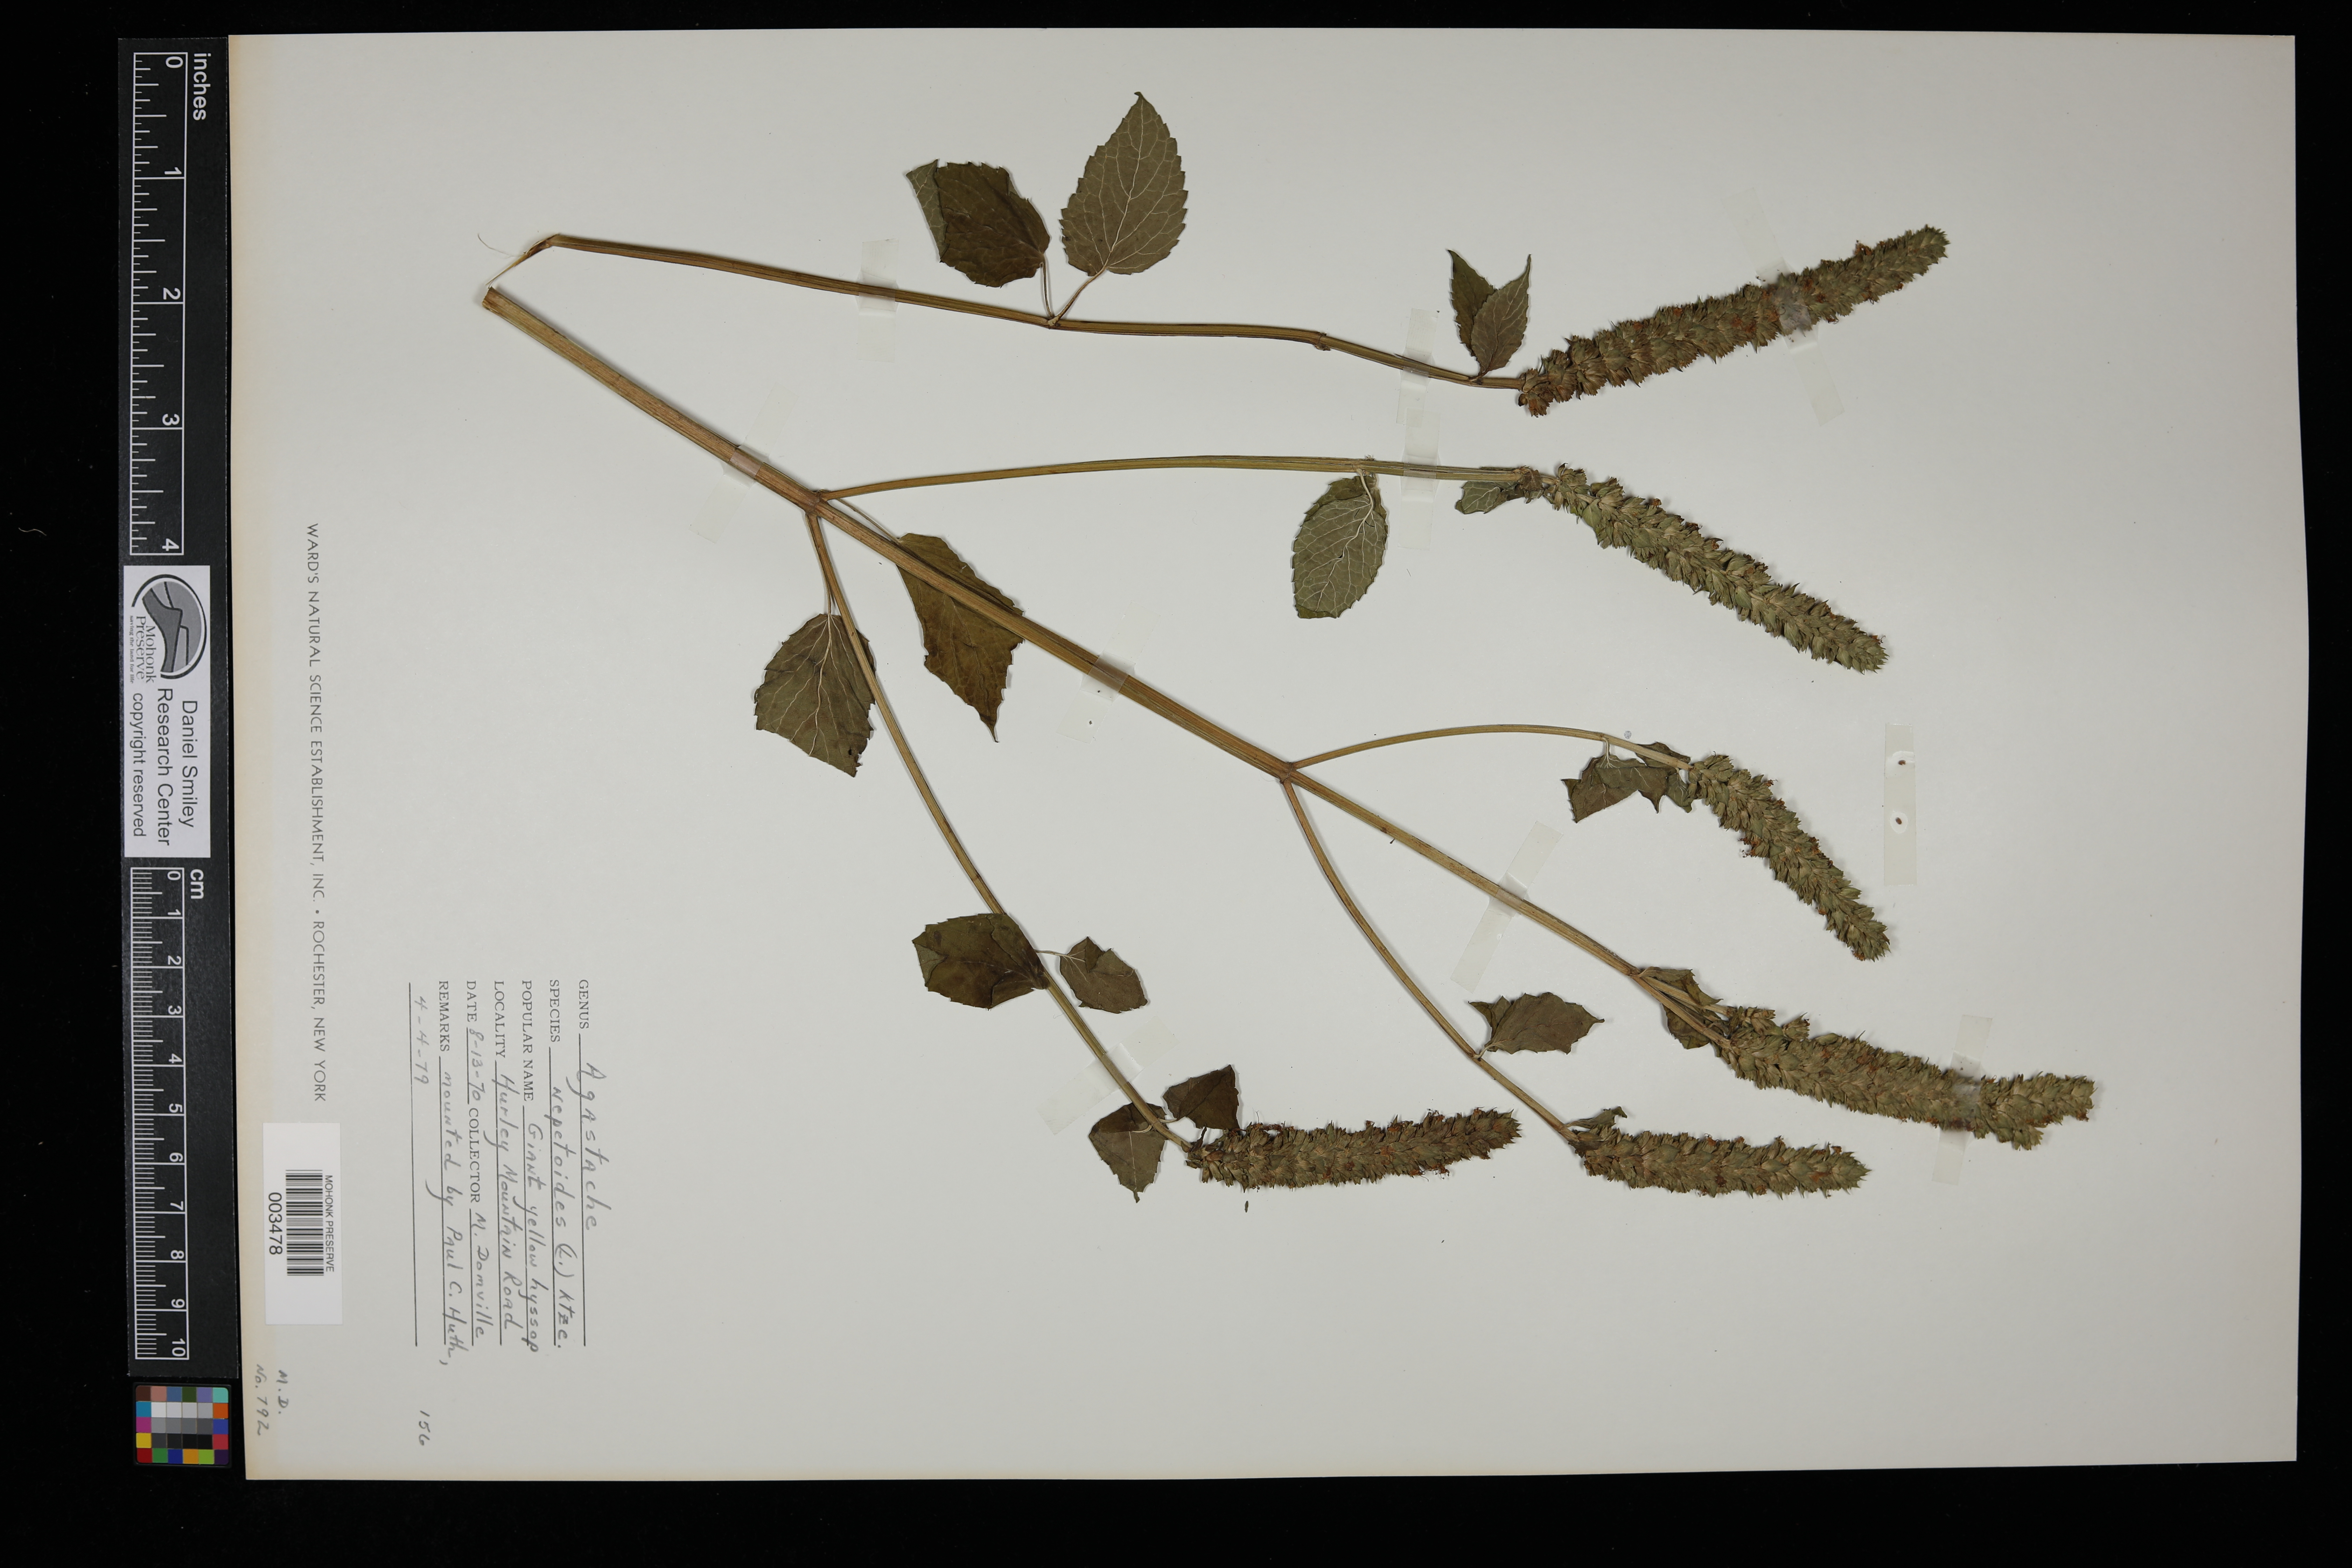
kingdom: Plantae
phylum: Tracheophyta
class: Magnoliopsida
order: Lamiales
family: Lamiaceae
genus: Agastache
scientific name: Agastache nepetoides
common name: Catnip giant hyssop
